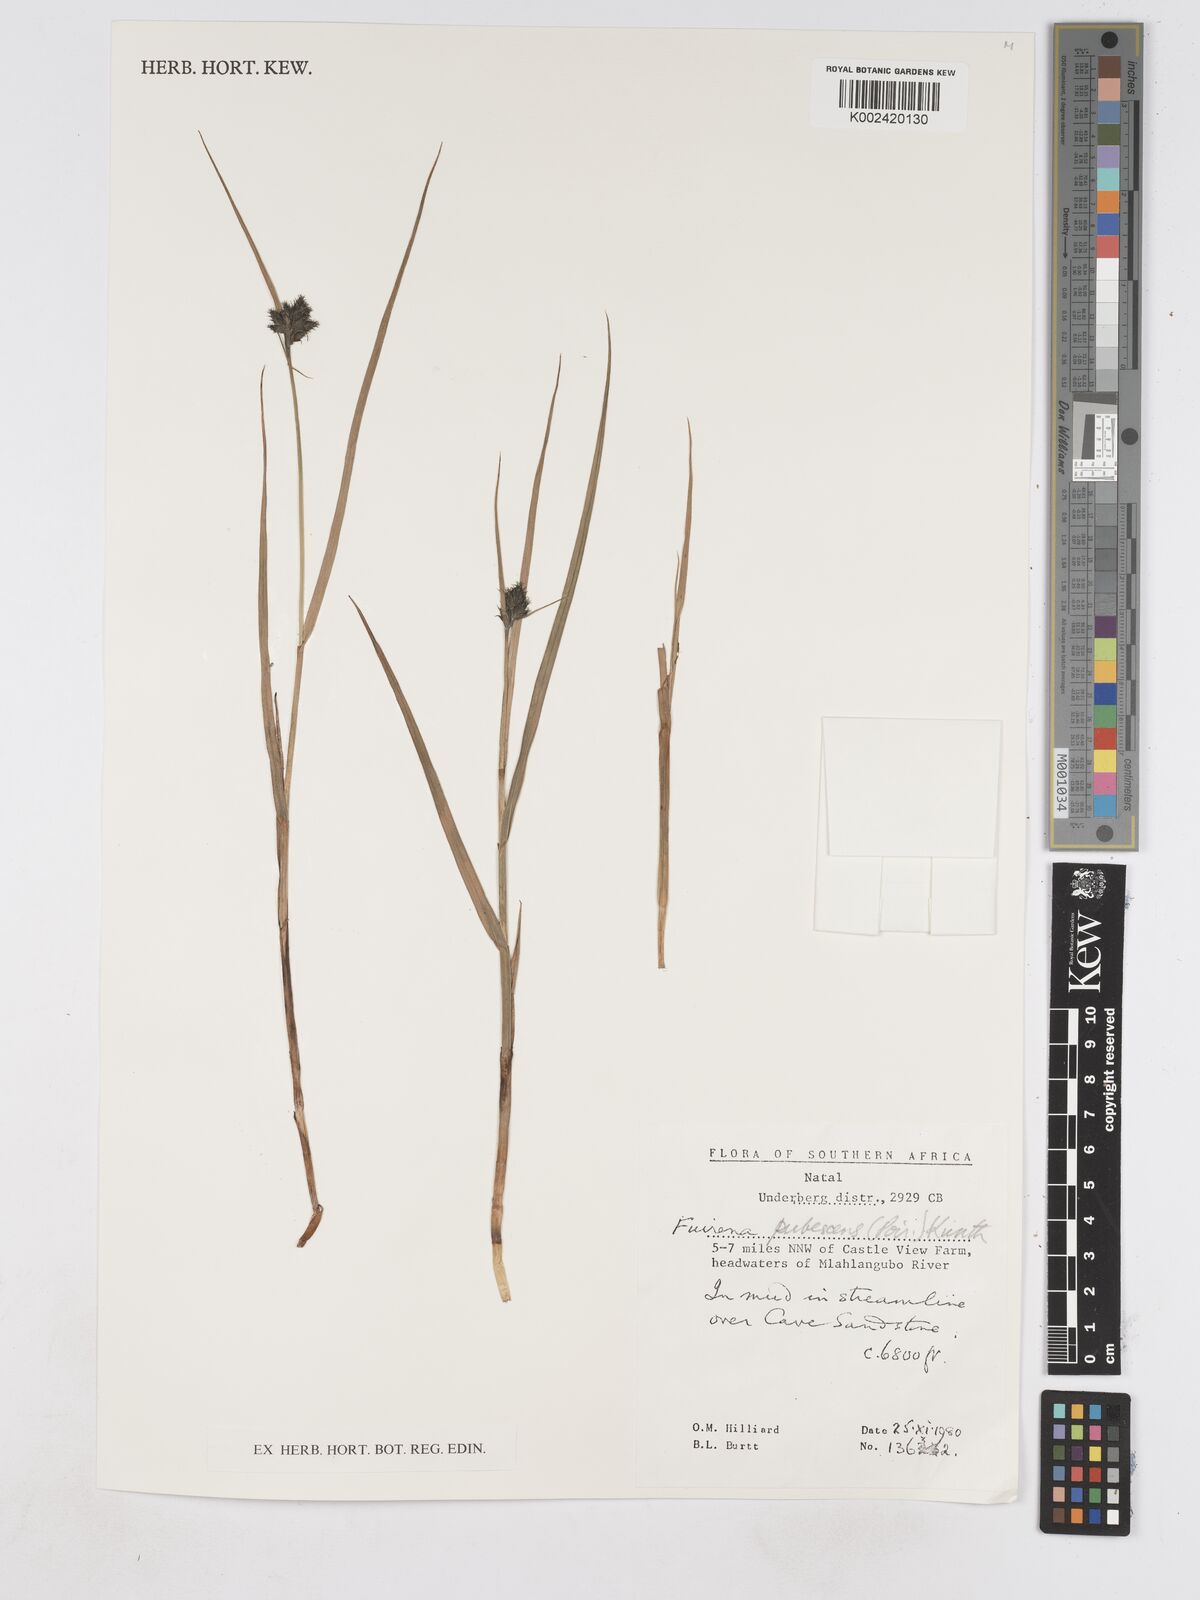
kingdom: Plantae
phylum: Tracheophyta
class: Liliopsida
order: Poales
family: Cyperaceae
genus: Fuirena
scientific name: Fuirena pubescens
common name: Hairy sedge
